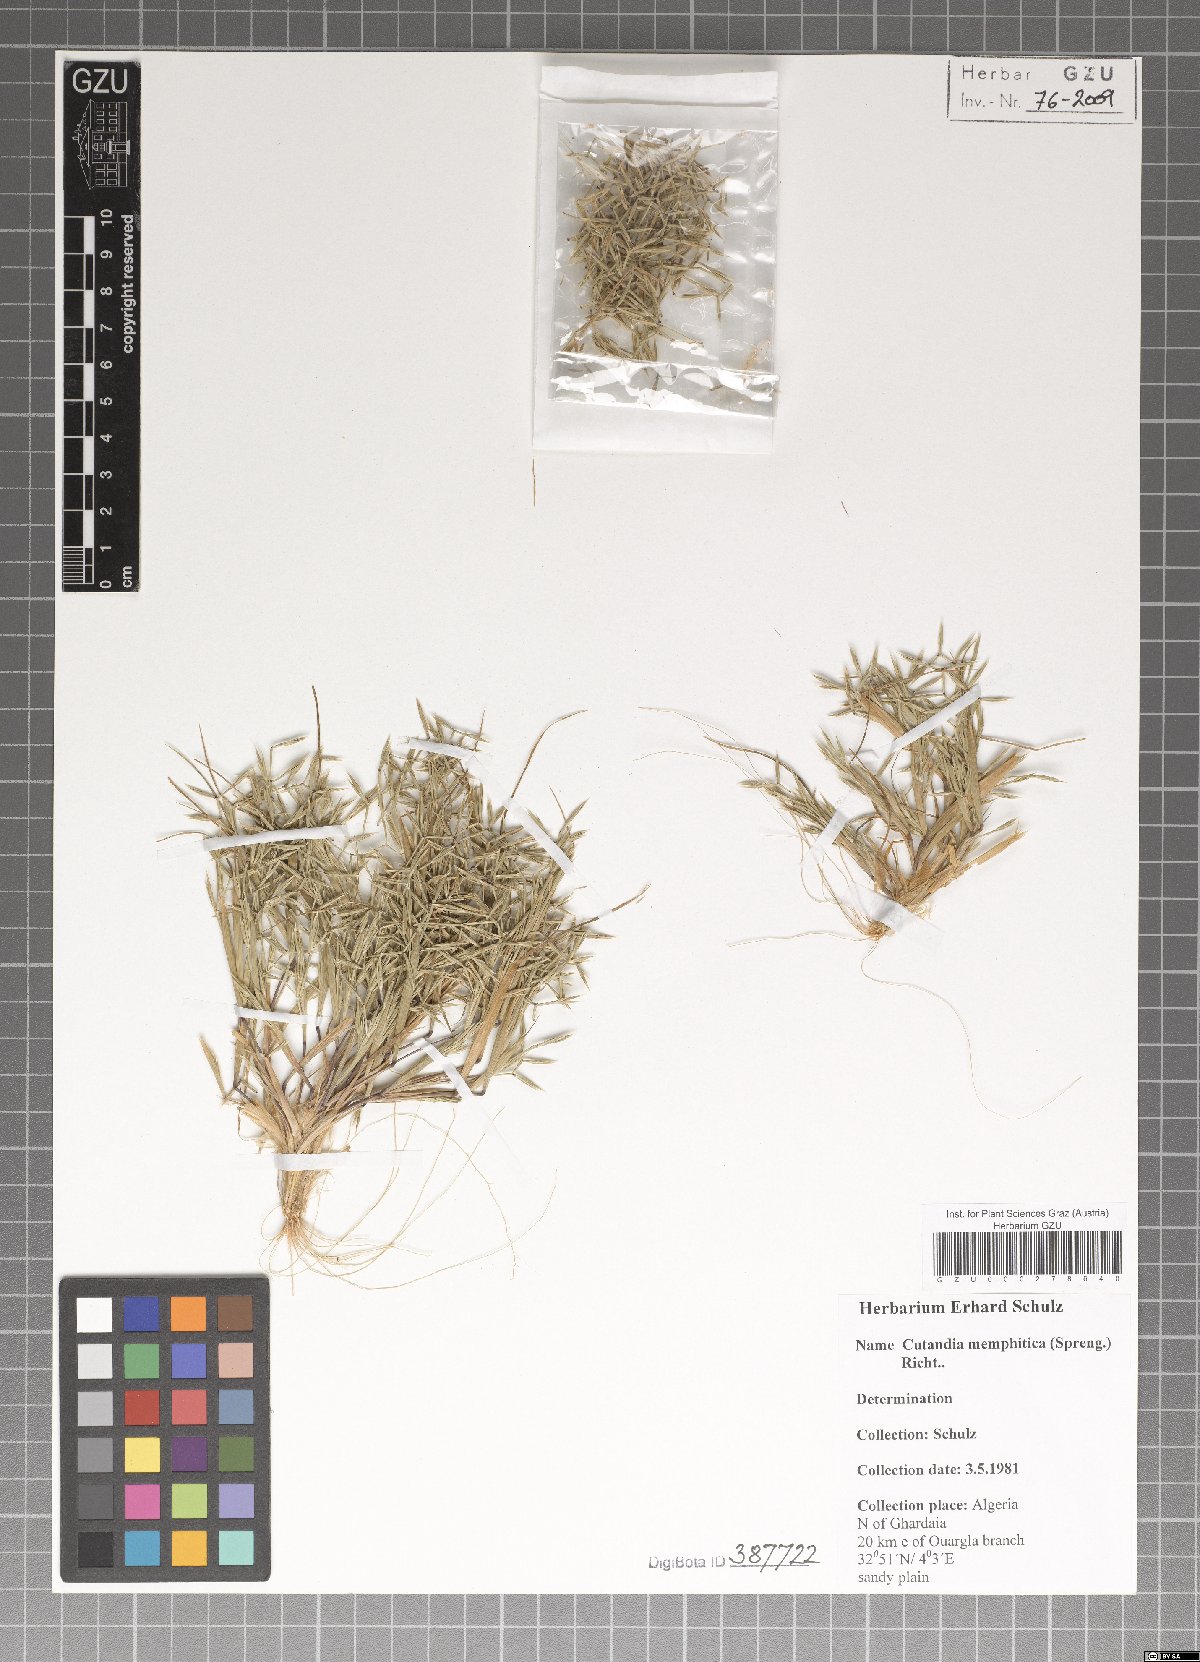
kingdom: Plantae
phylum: Tracheophyta
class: Liliopsida
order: Poales
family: Poaceae
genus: Cutandia
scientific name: Cutandia memphitica
